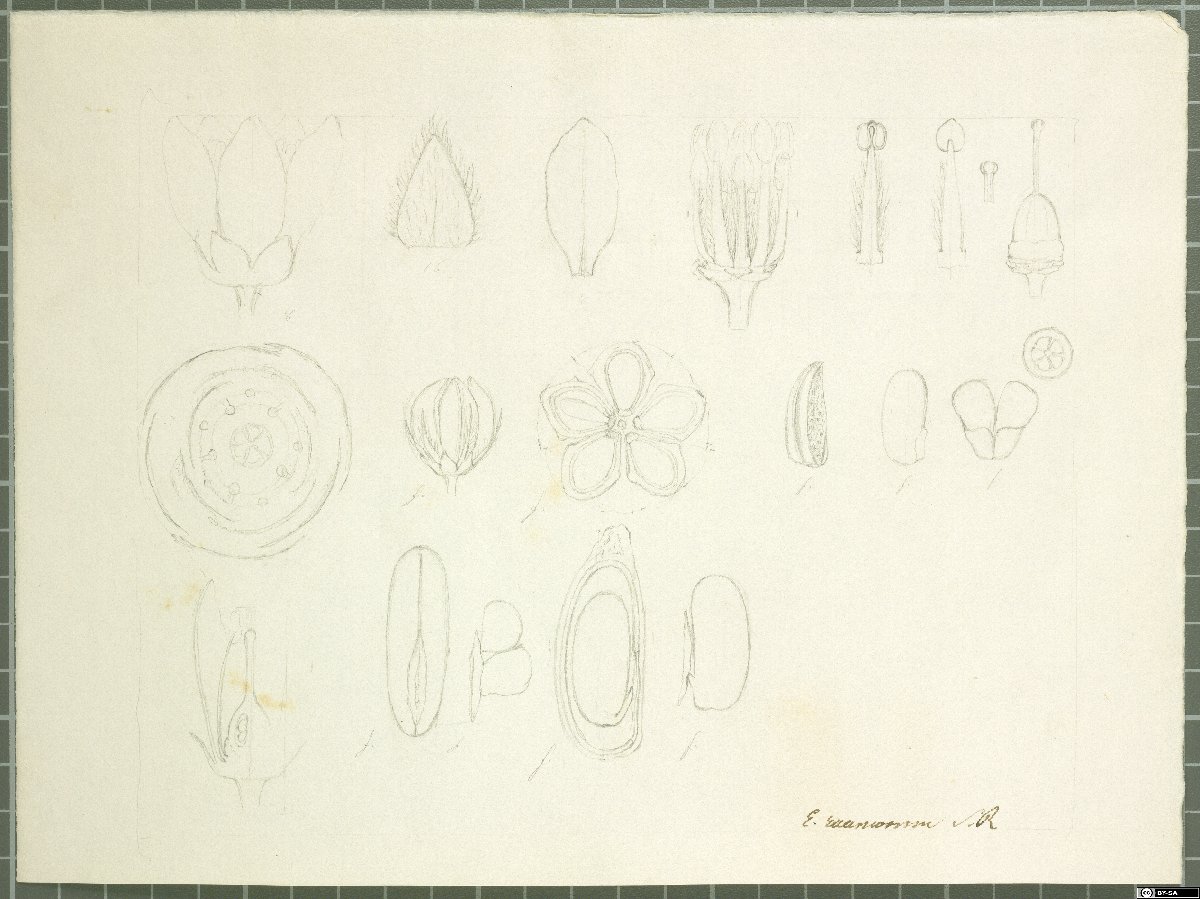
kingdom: Plantae
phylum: Tracheophyta
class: Magnoliopsida
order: Sapindales
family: Rutaceae
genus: Philotheca
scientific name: Philotheca spicata
